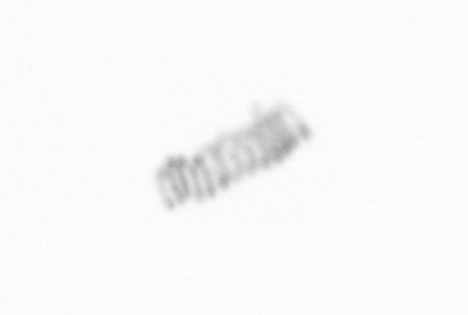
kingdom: Chromista
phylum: Ochrophyta
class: Bacillariophyceae
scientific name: Bacillariophyceae
